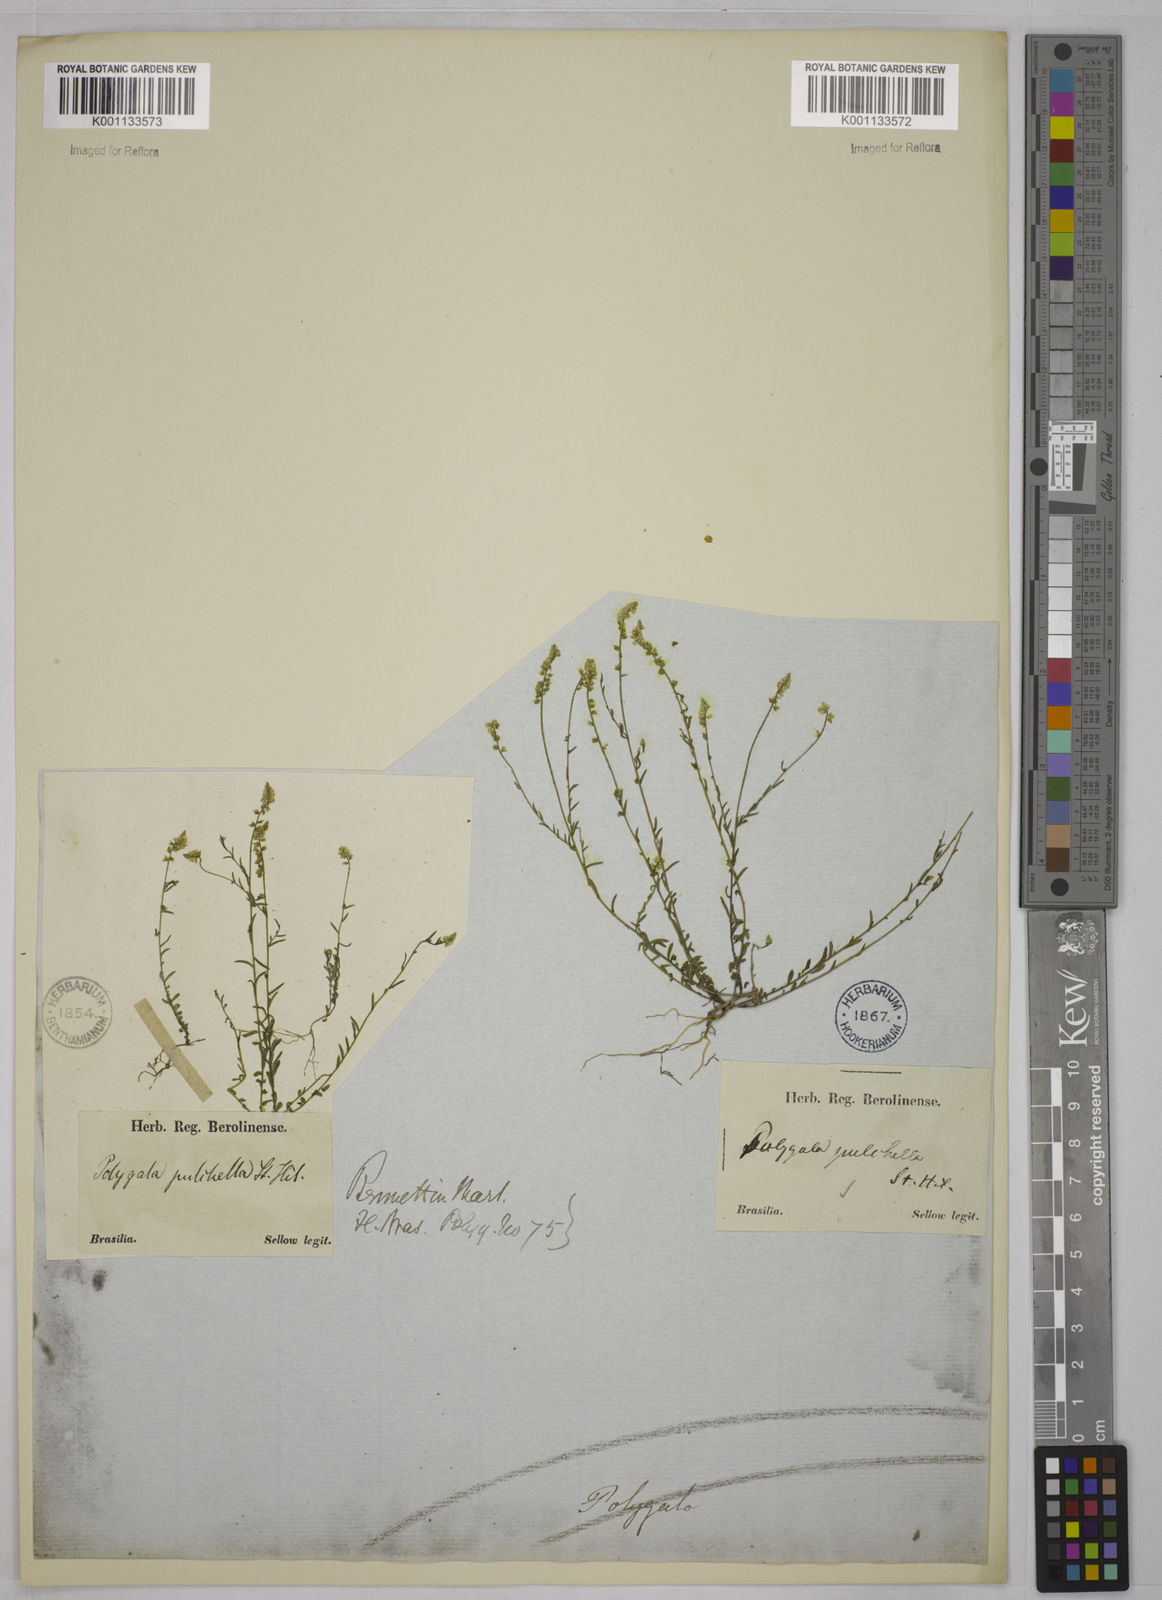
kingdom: Plantae
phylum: Tracheophyta
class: Magnoliopsida
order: Fabales
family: Polygalaceae
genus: Polygala
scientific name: Polygala pulchella
